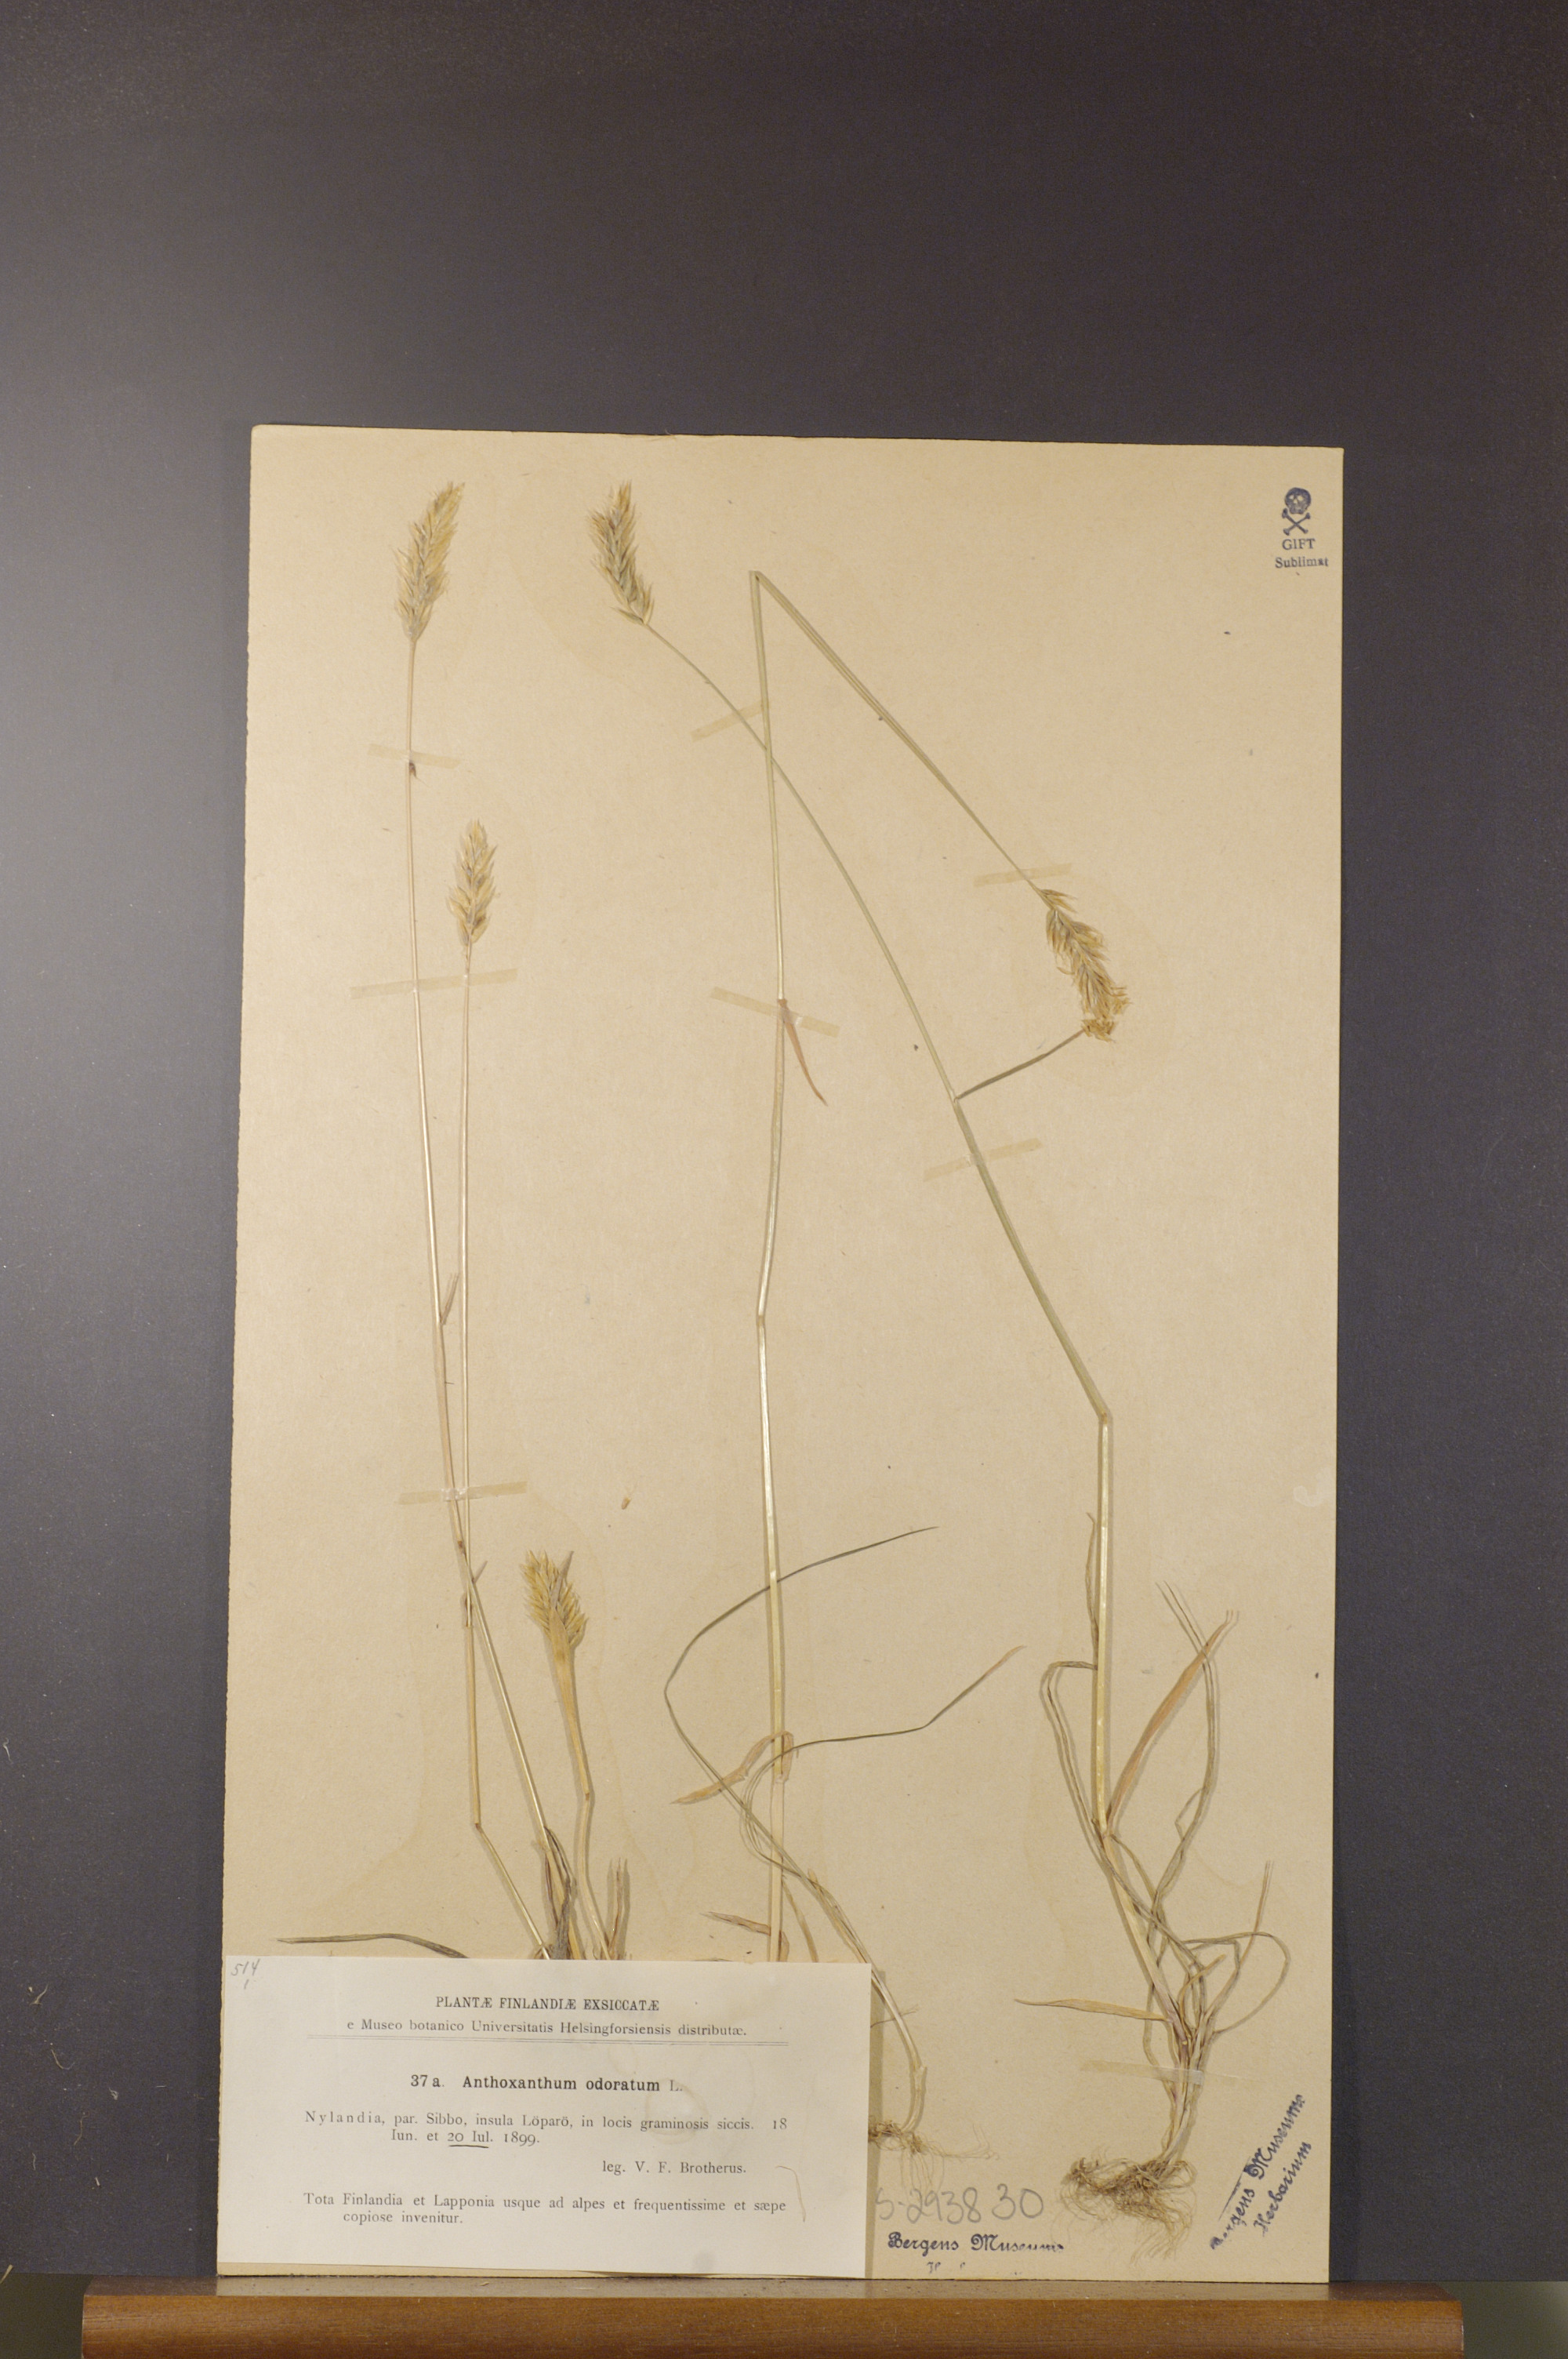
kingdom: Plantae
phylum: Tracheophyta
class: Liliopsida
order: Poales
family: Poaceae
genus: Anthoxanthum
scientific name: Anthoxanthum odoratum
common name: Sweet vernalgrass
